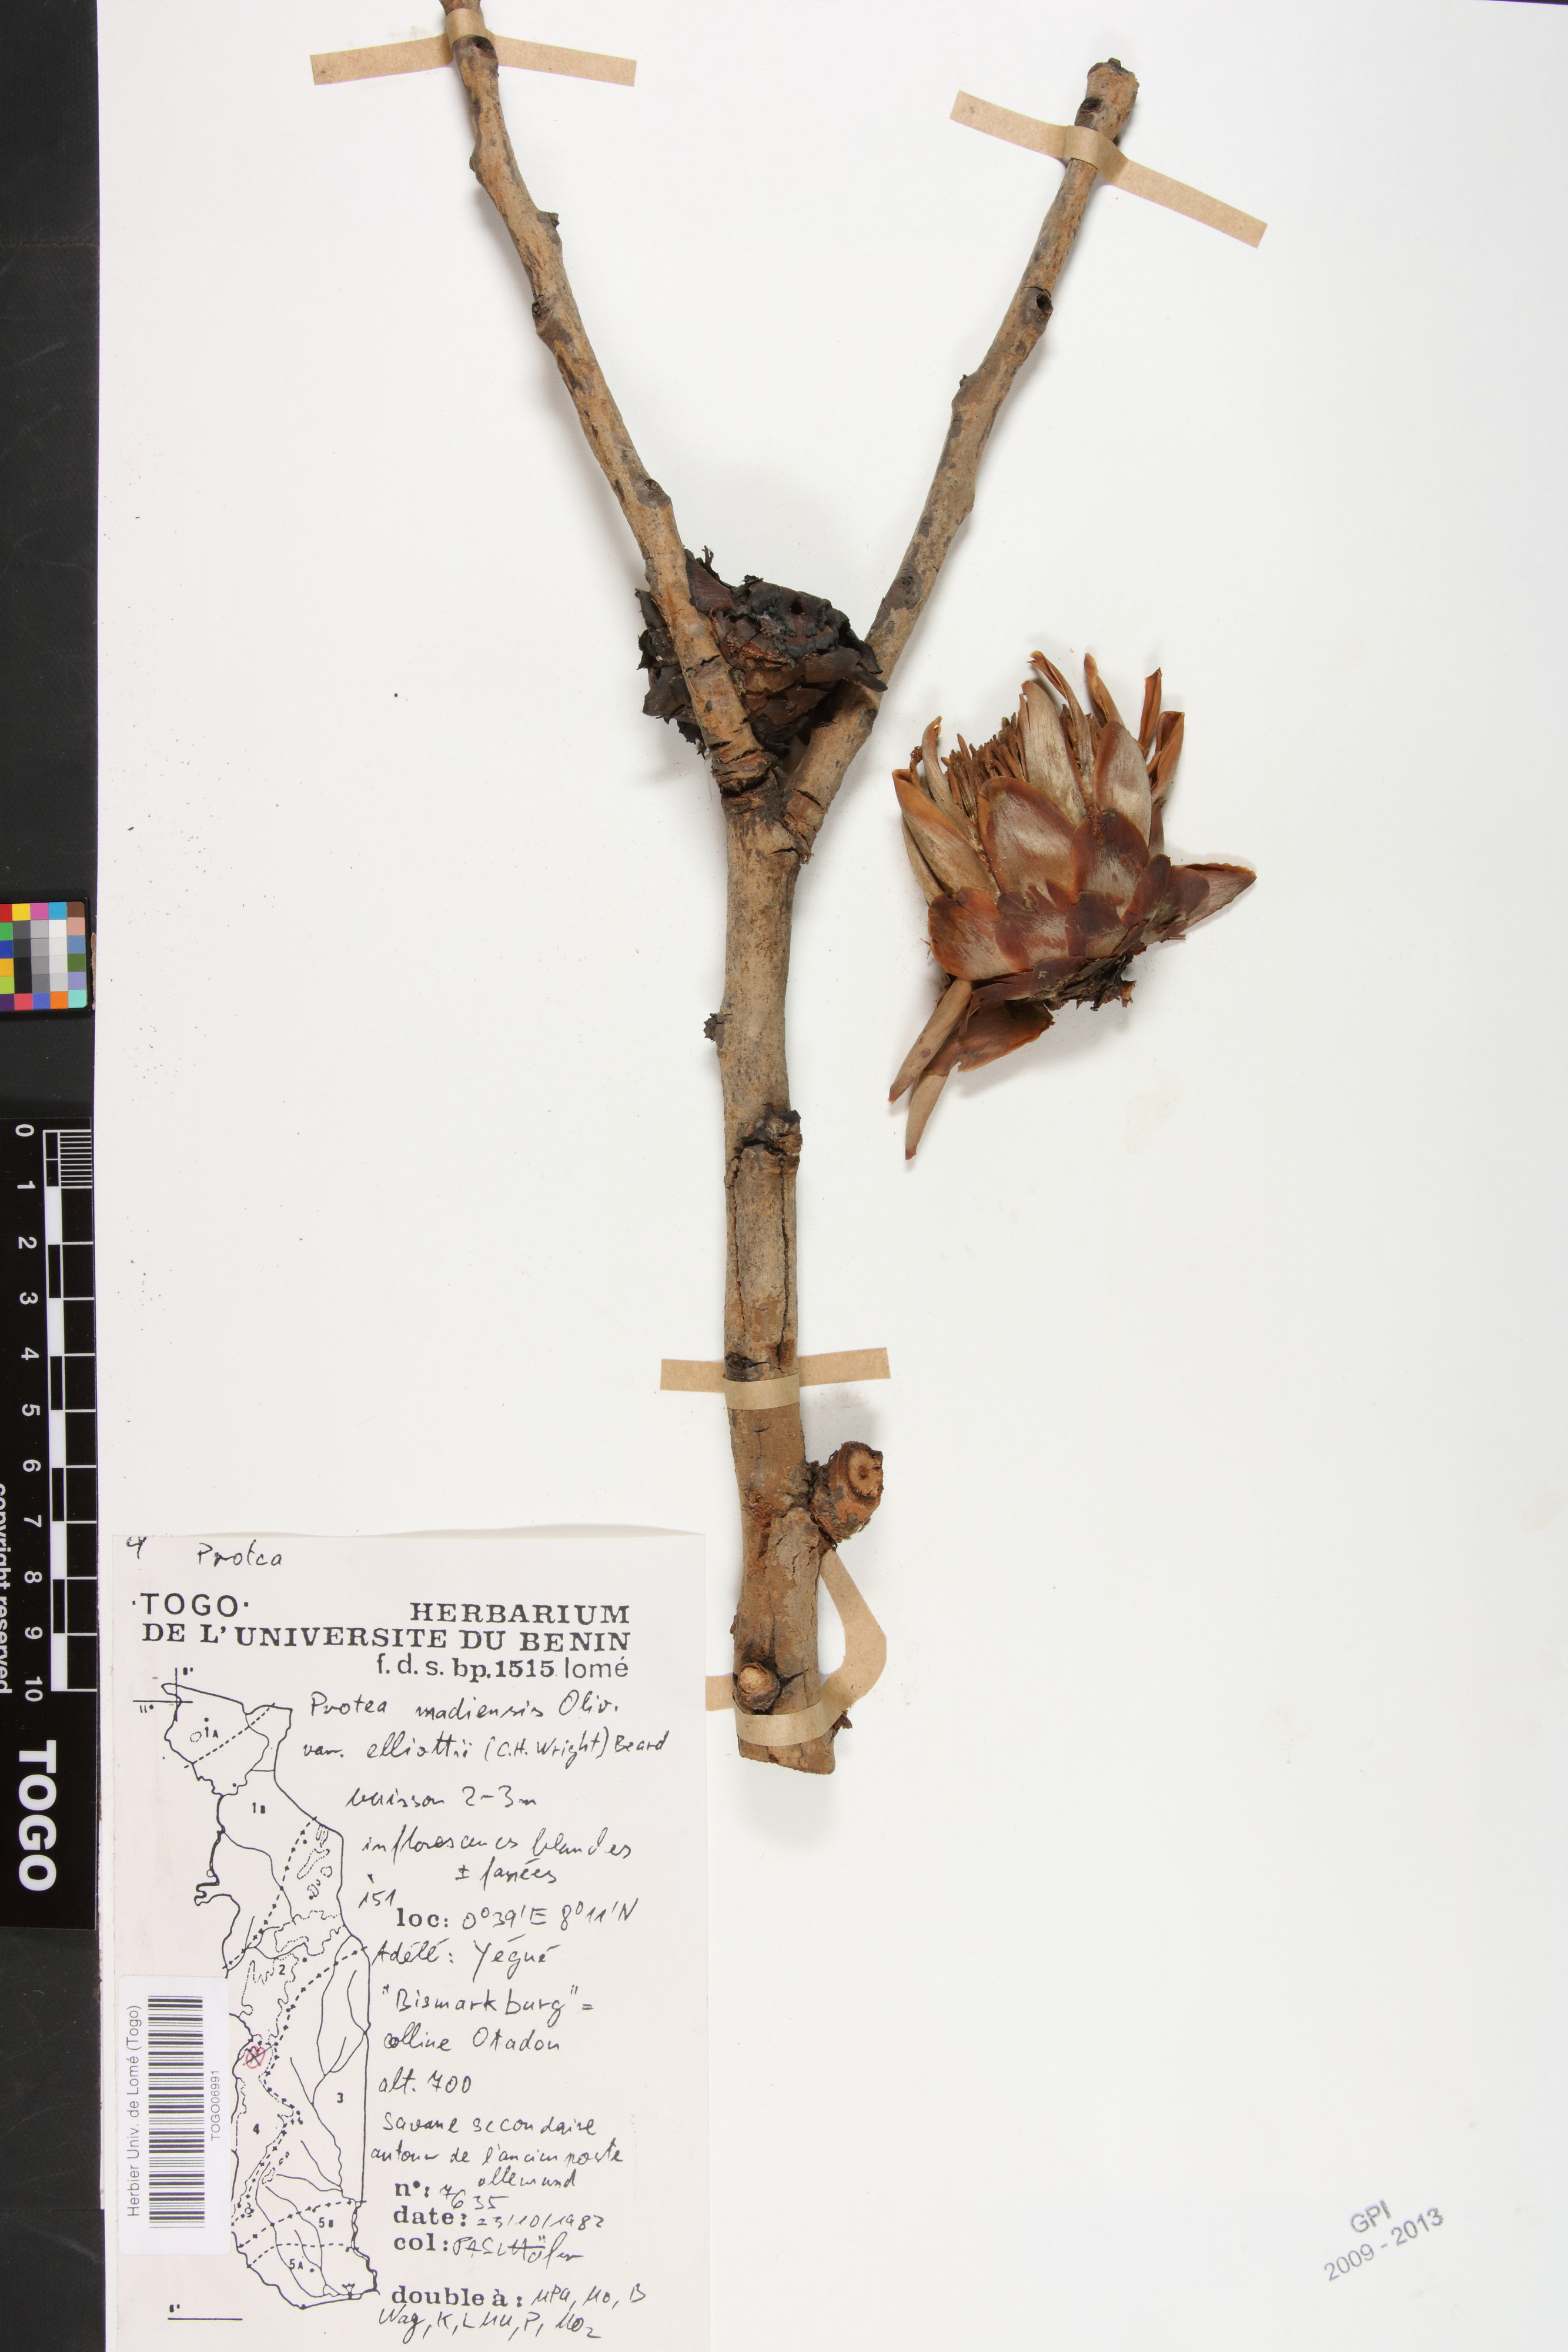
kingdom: Plantae
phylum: Tracheophyta
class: Magnoliopsida
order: Proteales
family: Proteaceae
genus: Protea
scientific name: Protea madiensis
